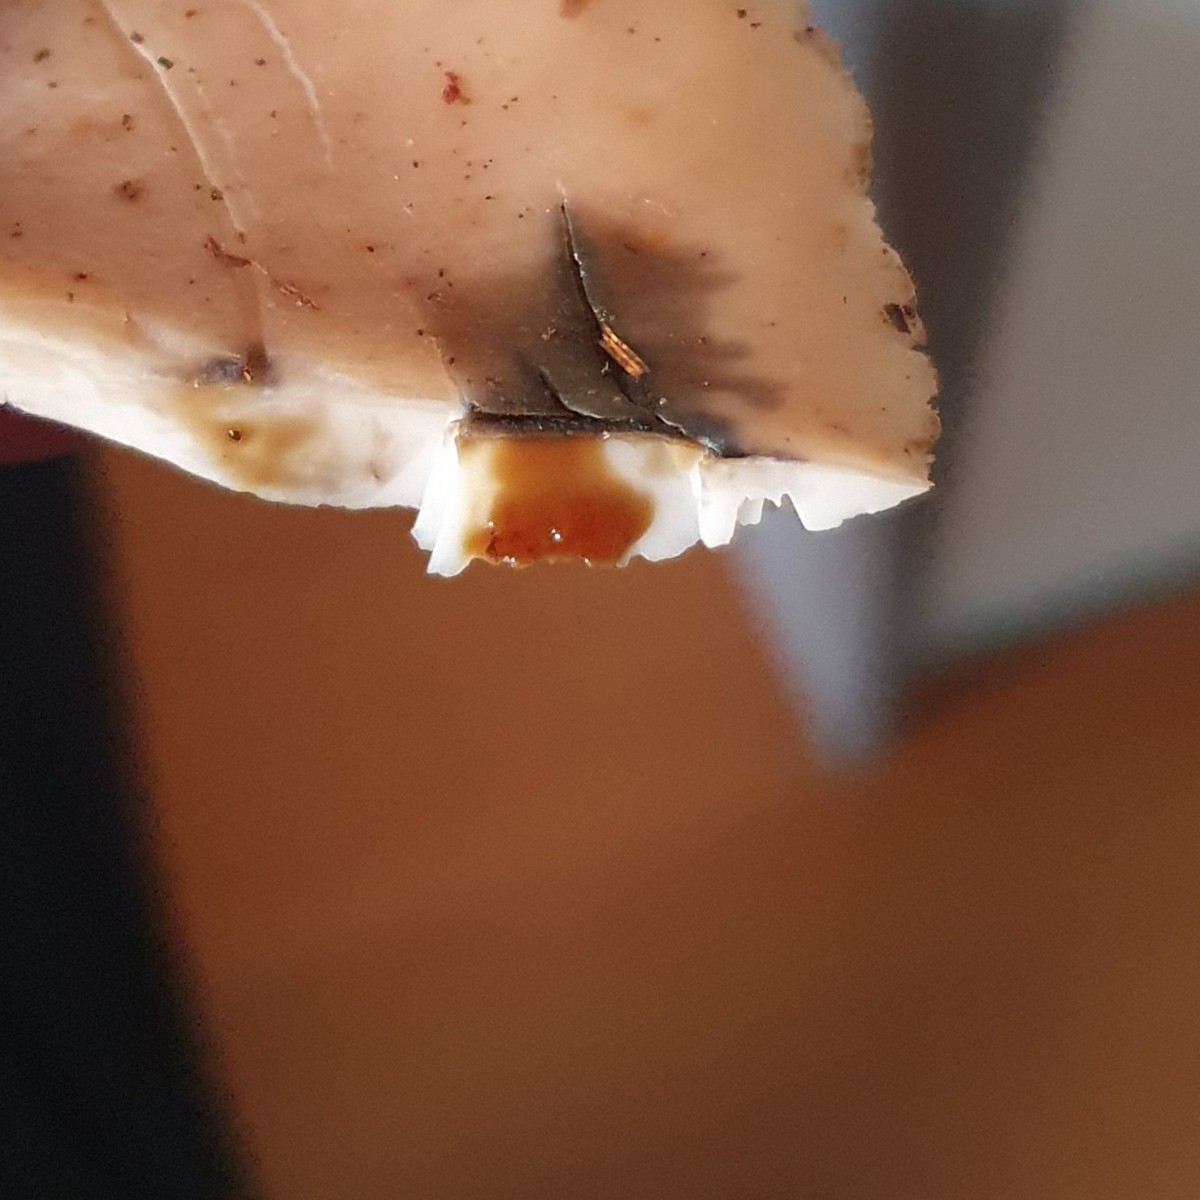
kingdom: Fungi
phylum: Basidiomycota
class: Agaricomycetes
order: Russulales
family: Auriscalpiaceae
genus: Lentinellus
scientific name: Lentinellus ursinus
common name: børstehåret savbladhat
